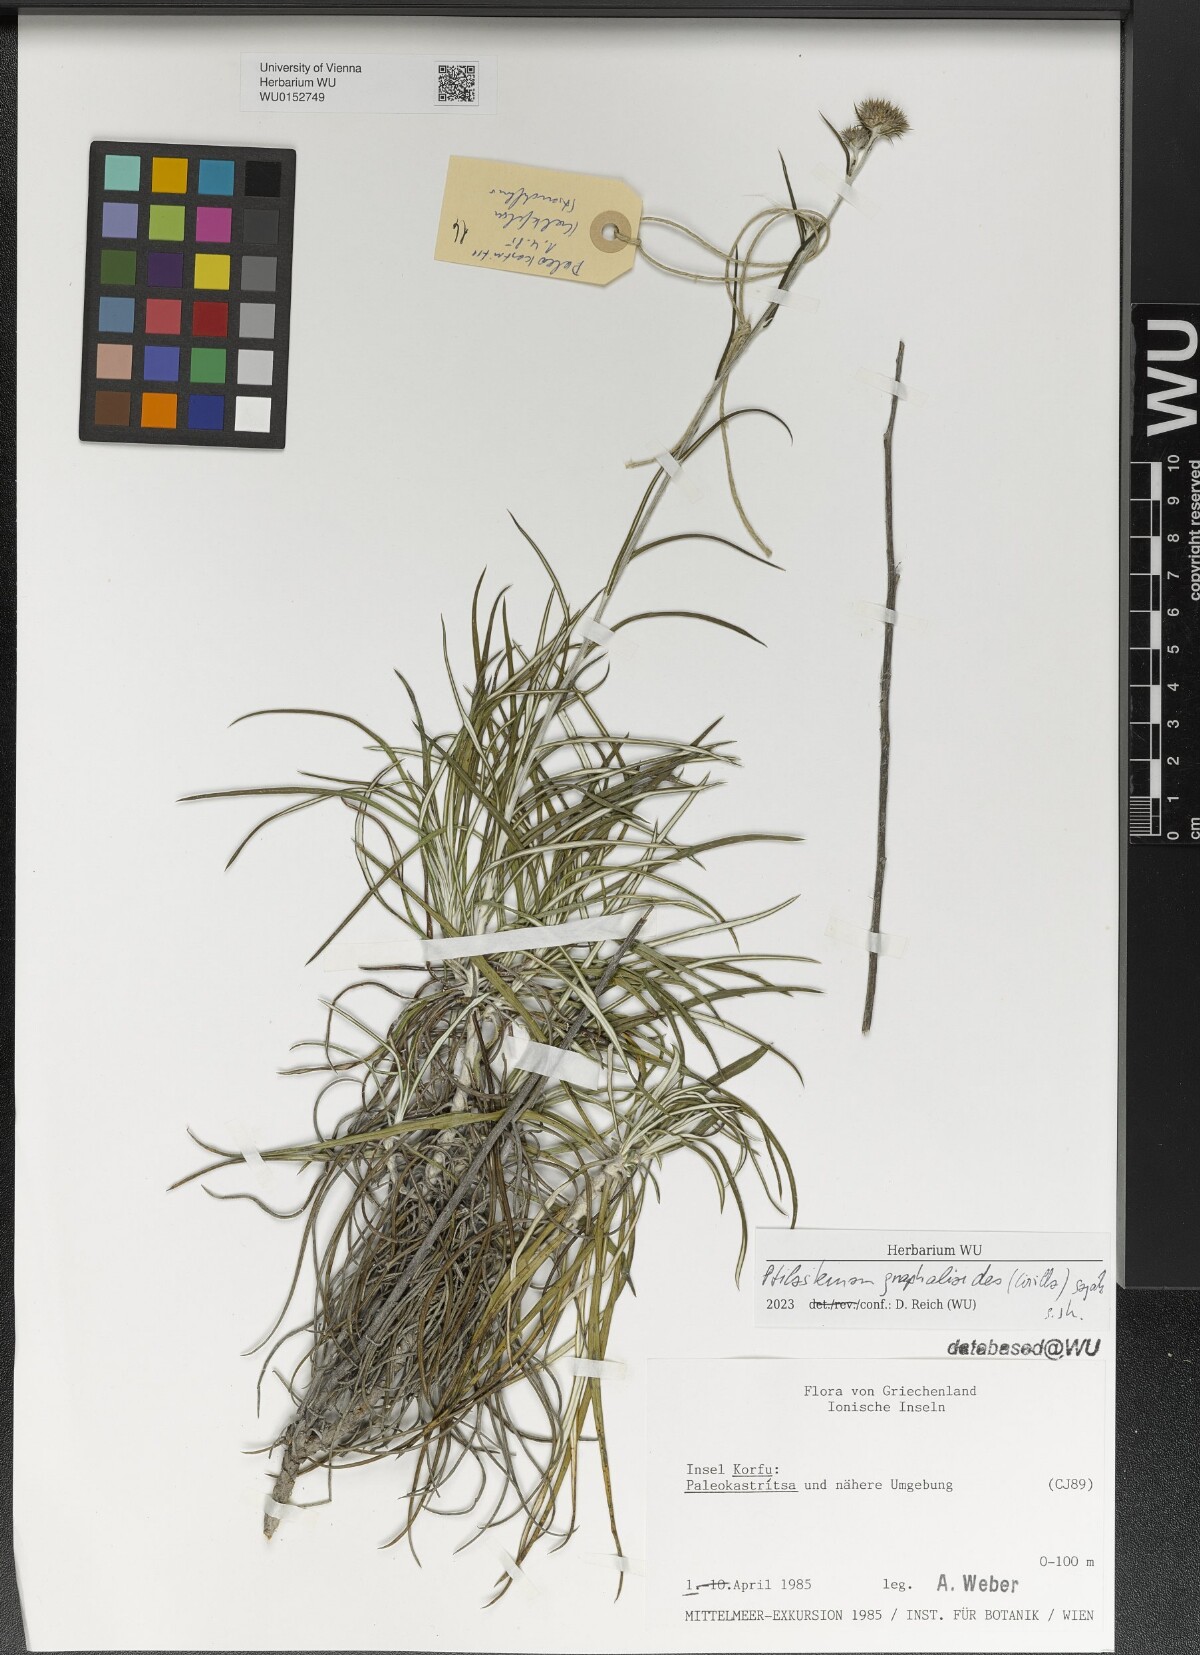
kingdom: Plantae
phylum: Tracheophyta
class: Magnoliopsida
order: Asterales
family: Asteraceae
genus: Ptilostemon
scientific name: Ptilostemon gnaphaloides
